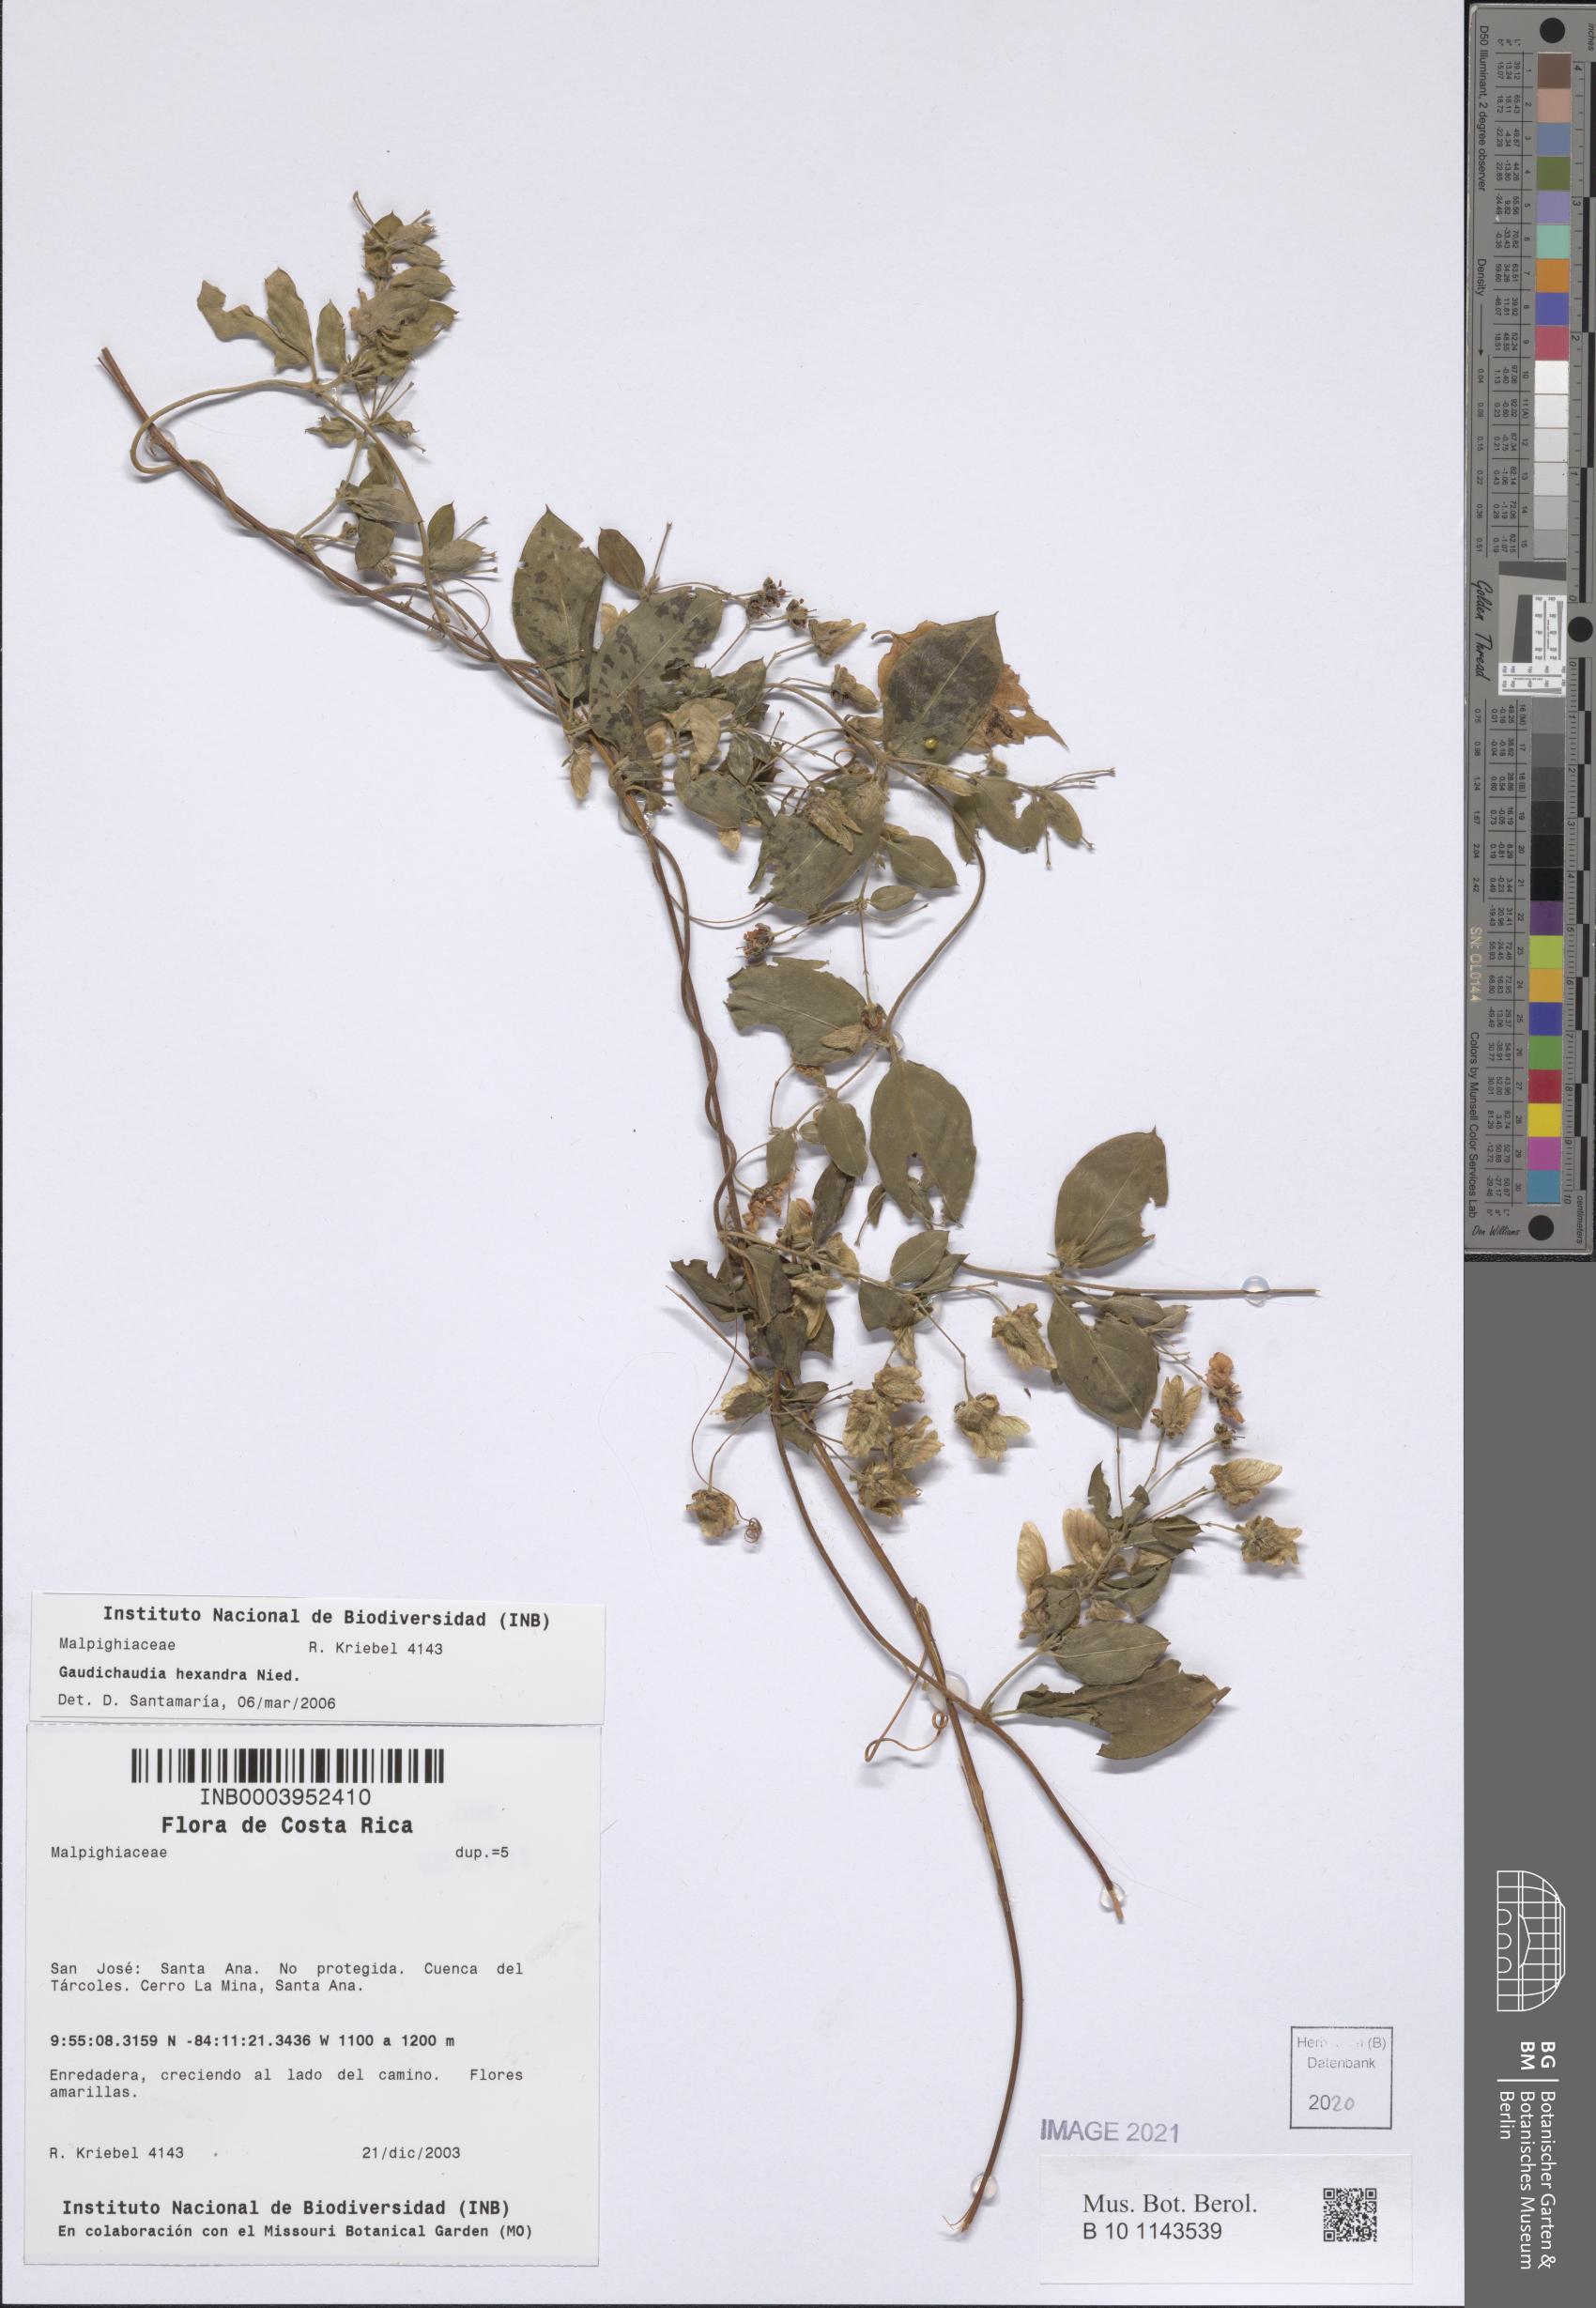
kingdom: Plantae
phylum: Tracheophyta
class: Magnoliopsida
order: Malpighiales
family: Malpighiaceae
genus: Gaudichaudia
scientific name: Gaudichaudia hexandra
